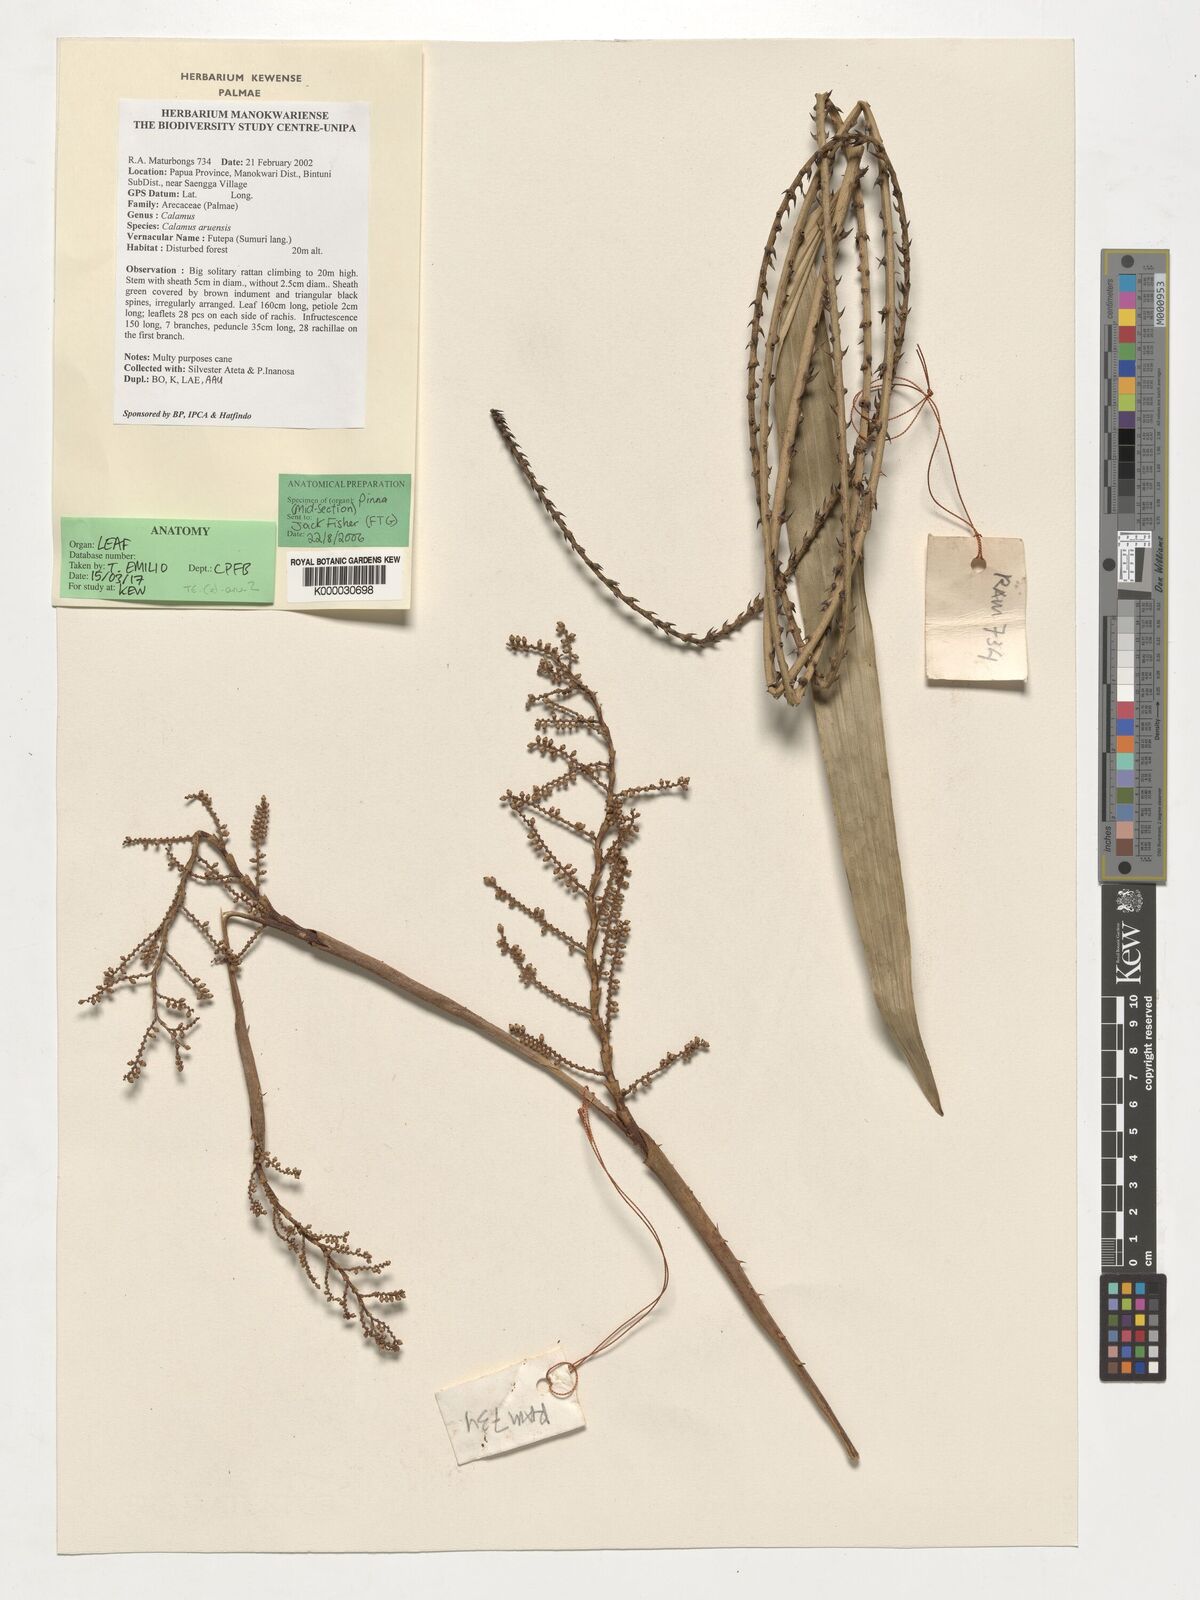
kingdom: Plantae
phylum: Tracheophyta
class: Liliopsida
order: Arecales
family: Arecaceae
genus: Calamus
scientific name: Calamus aruensis
